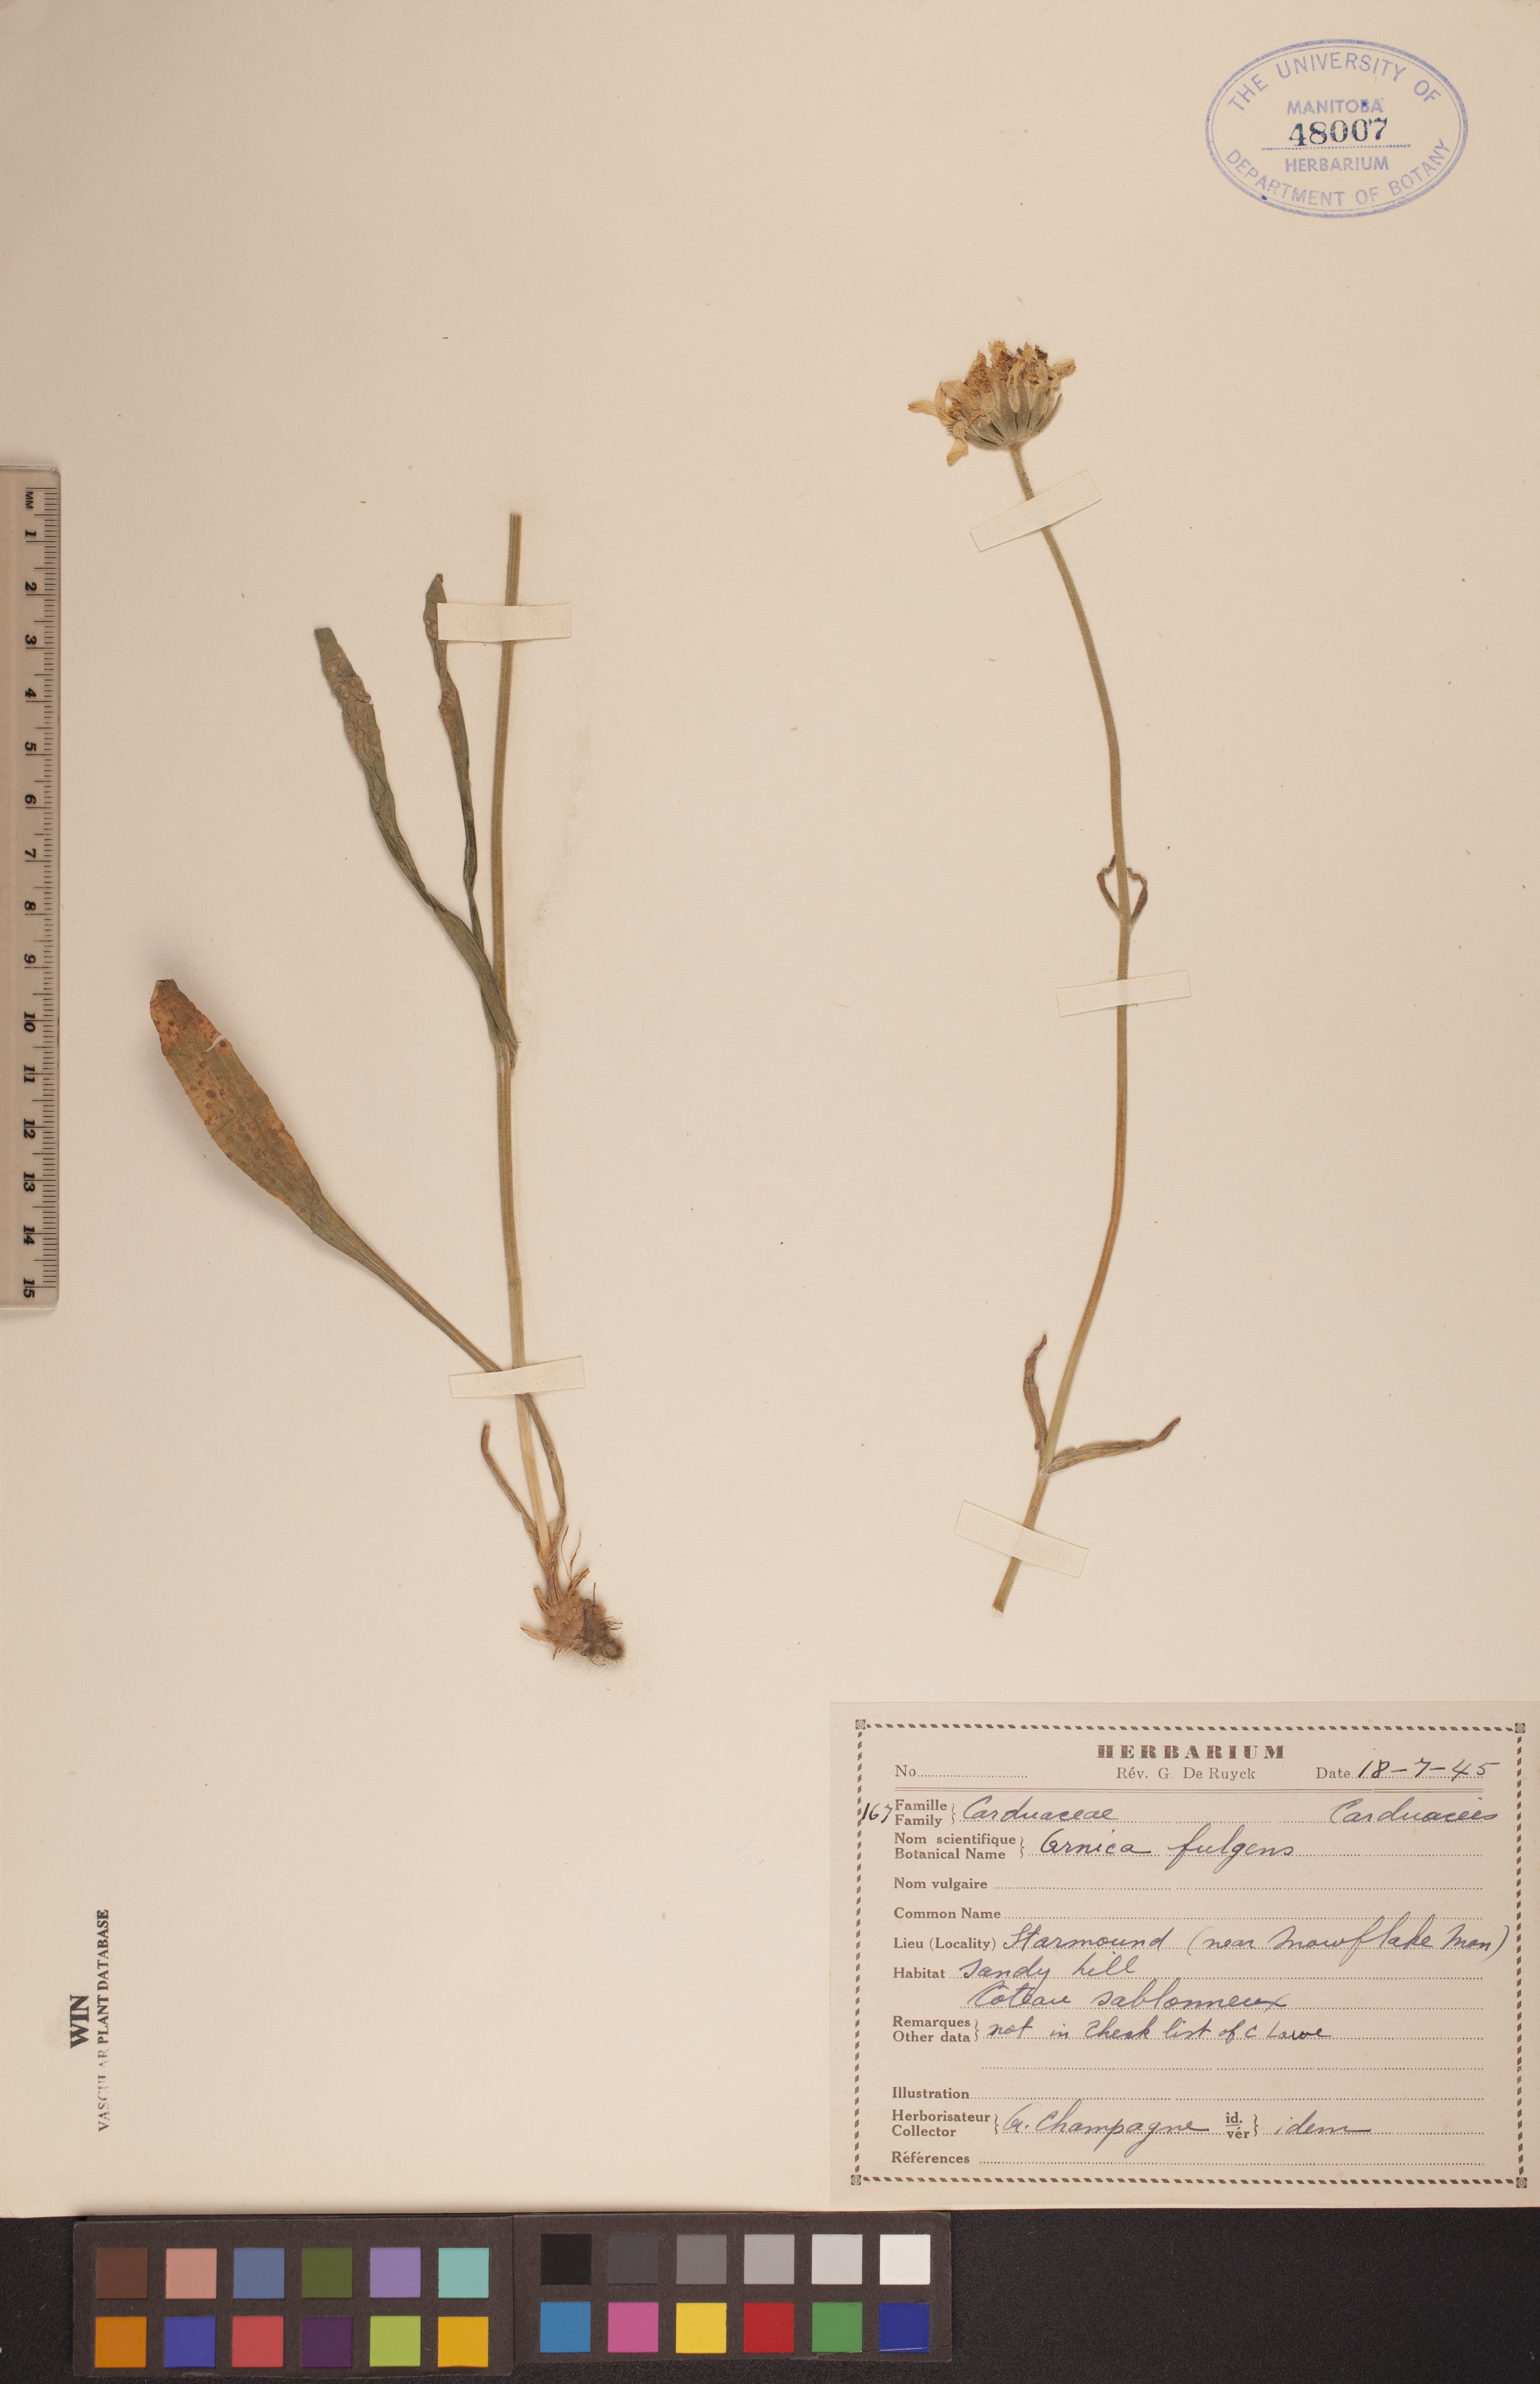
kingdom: Plantae
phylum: Tracheophyta
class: Magnoliopsida
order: Asterales
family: Asteraceae
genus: Arnica
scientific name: Arnica fulgens
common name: Foothill arnica
